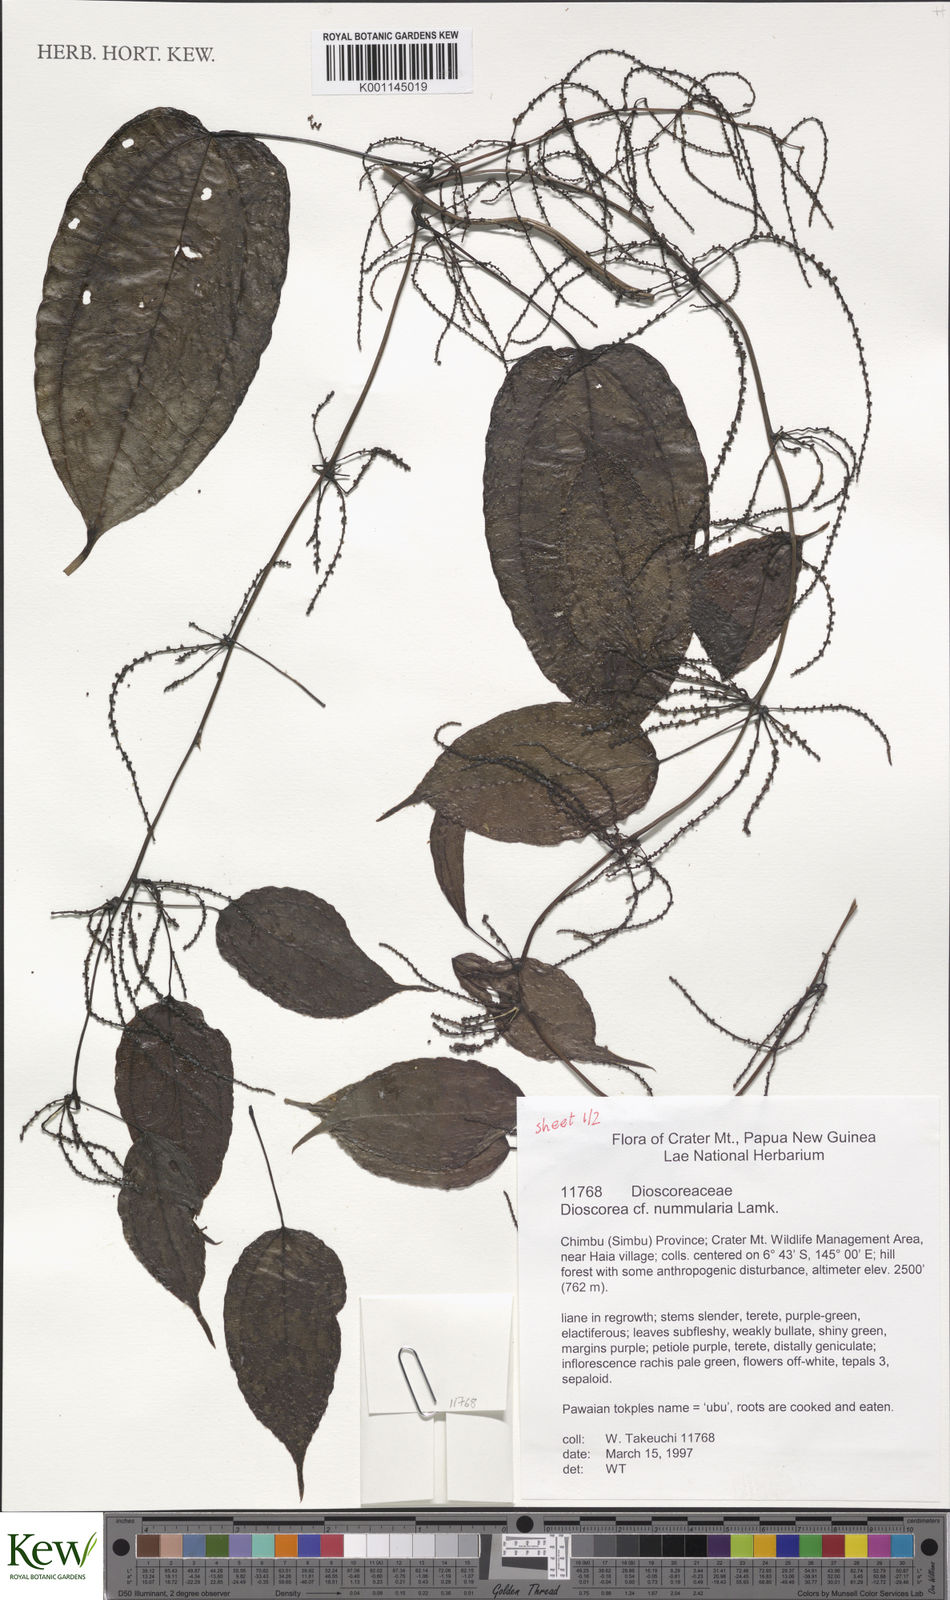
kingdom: Plantae
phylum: Tracheophyta
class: Liliopsida
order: Dioscoreales
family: Dioscoreaceae
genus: Dioscorea
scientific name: Dioscorea nummularia
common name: Pacific yam
